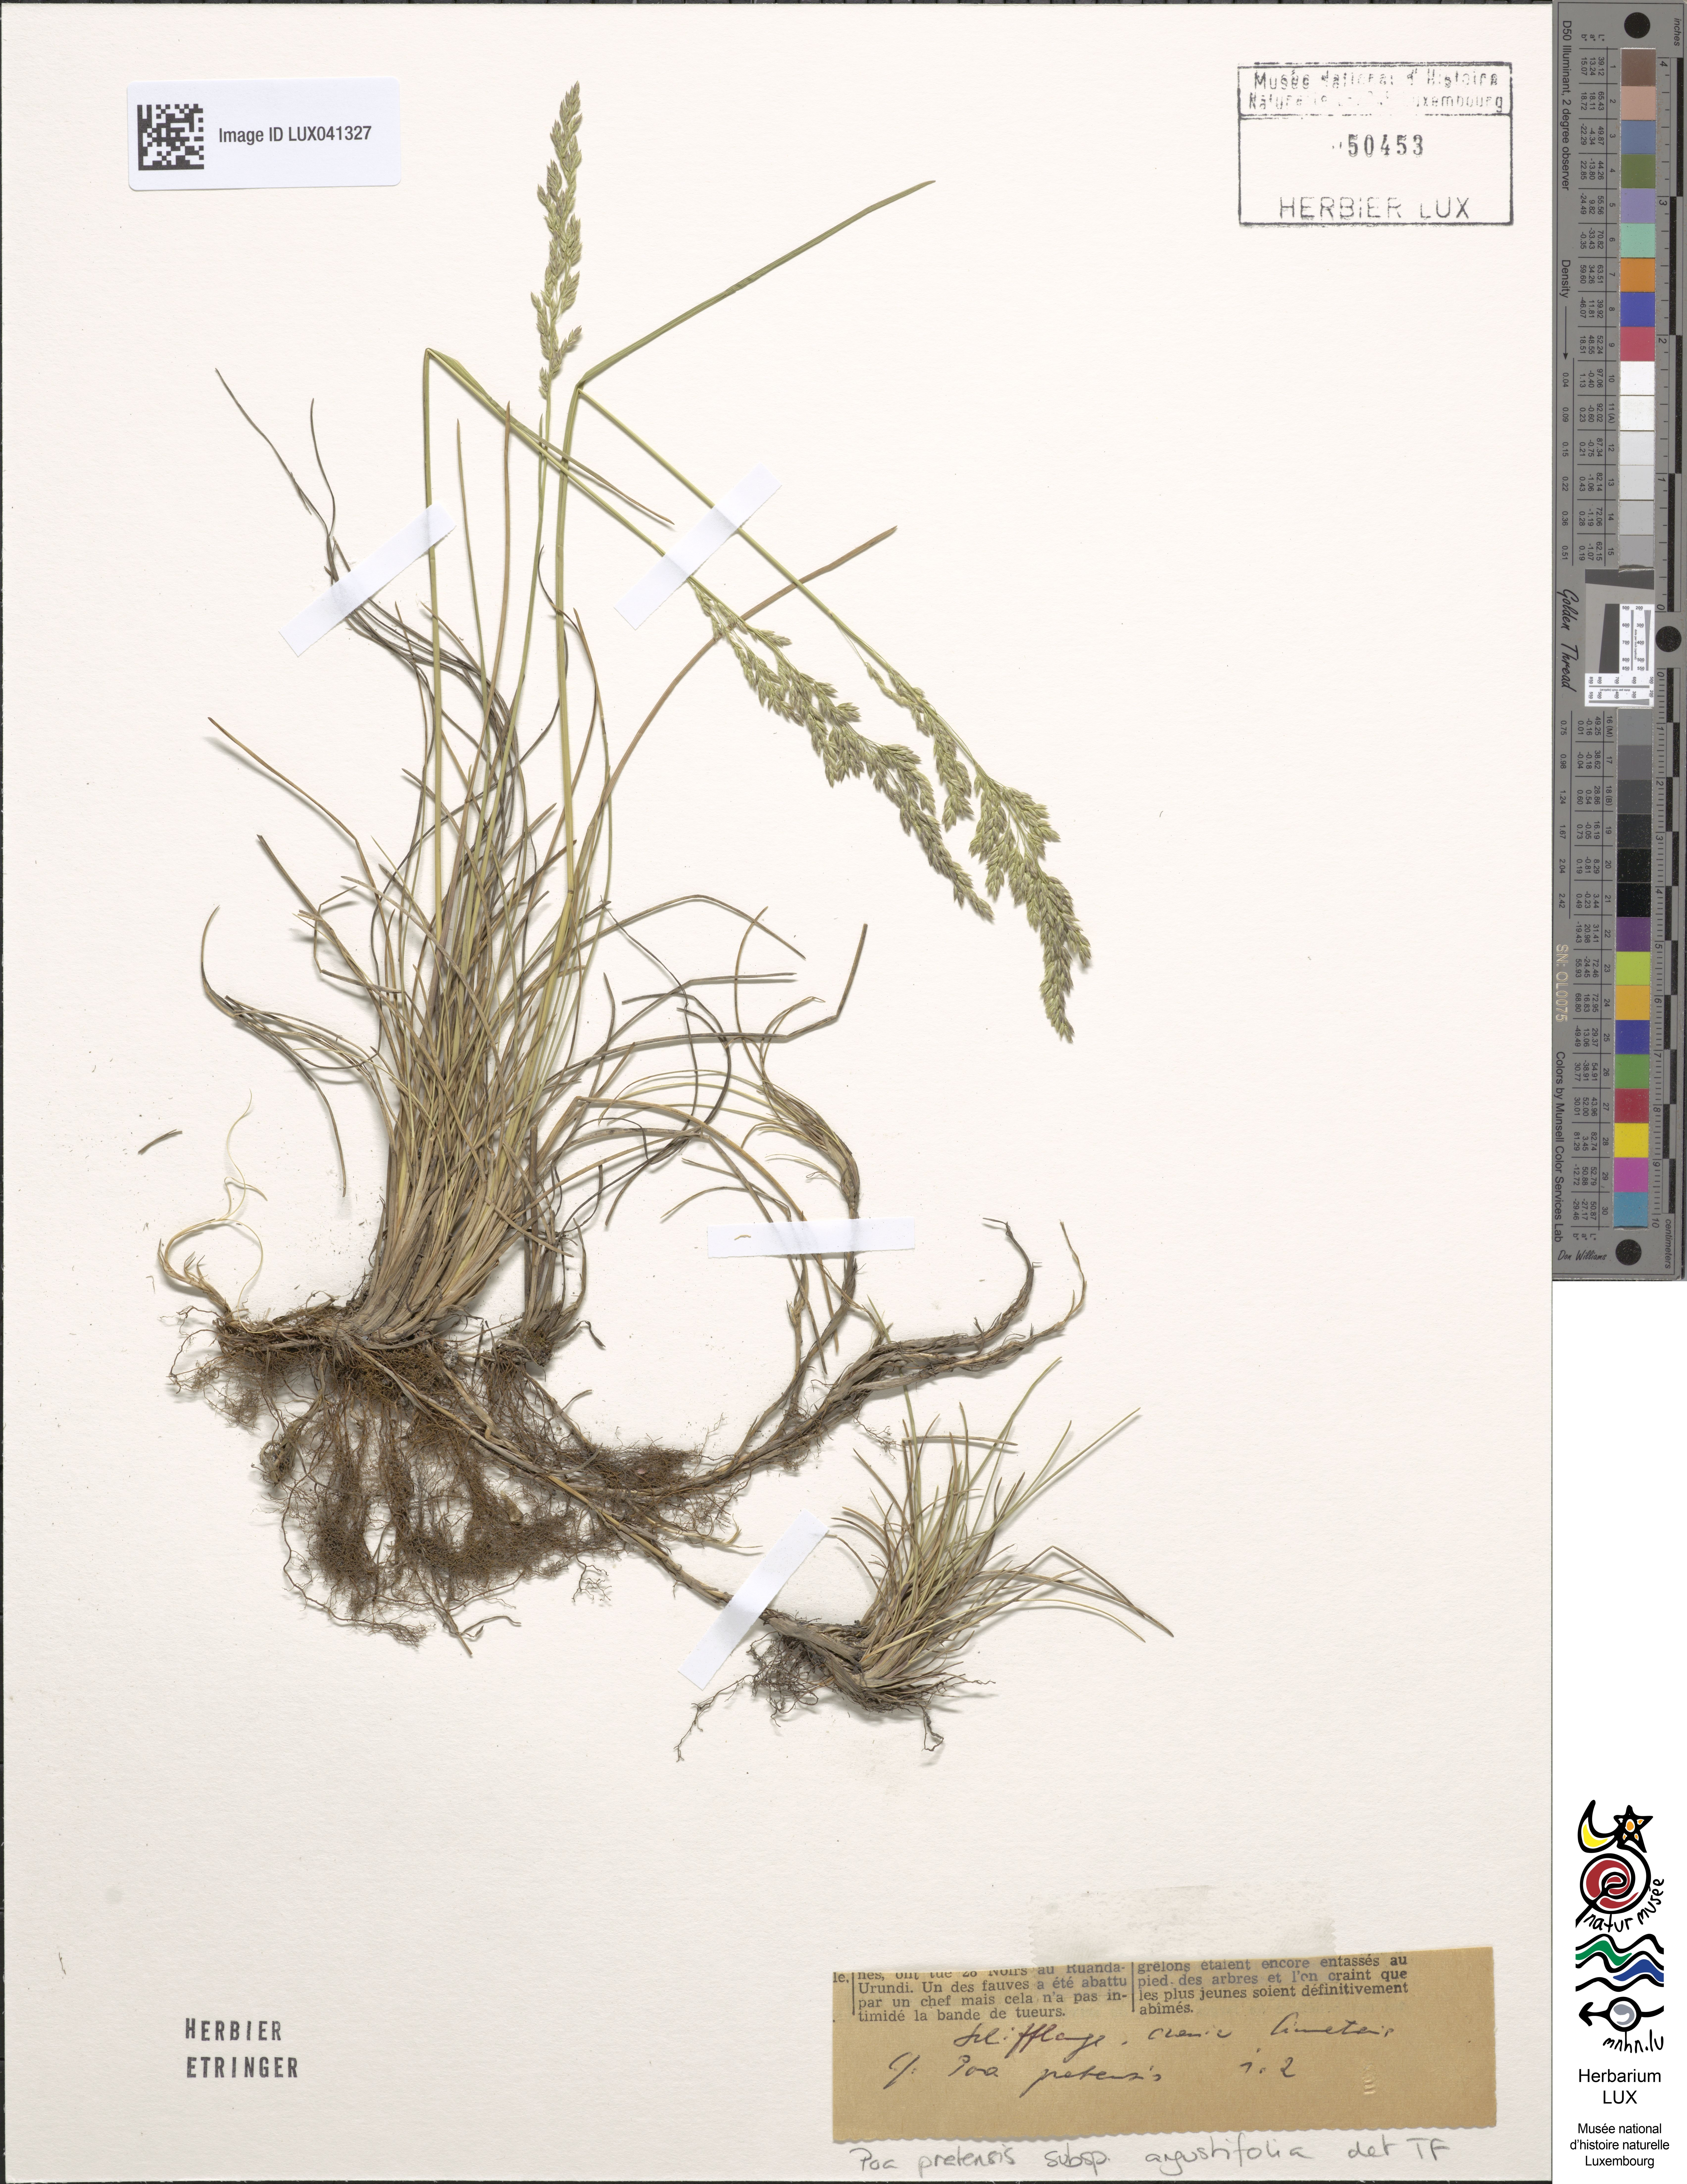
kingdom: Plantae
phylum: Tracheophyta
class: Liliopsida
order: Poales
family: Poaceae
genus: Poa
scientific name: Poa angustifolia
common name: Narrow-leaved meadow-grass
